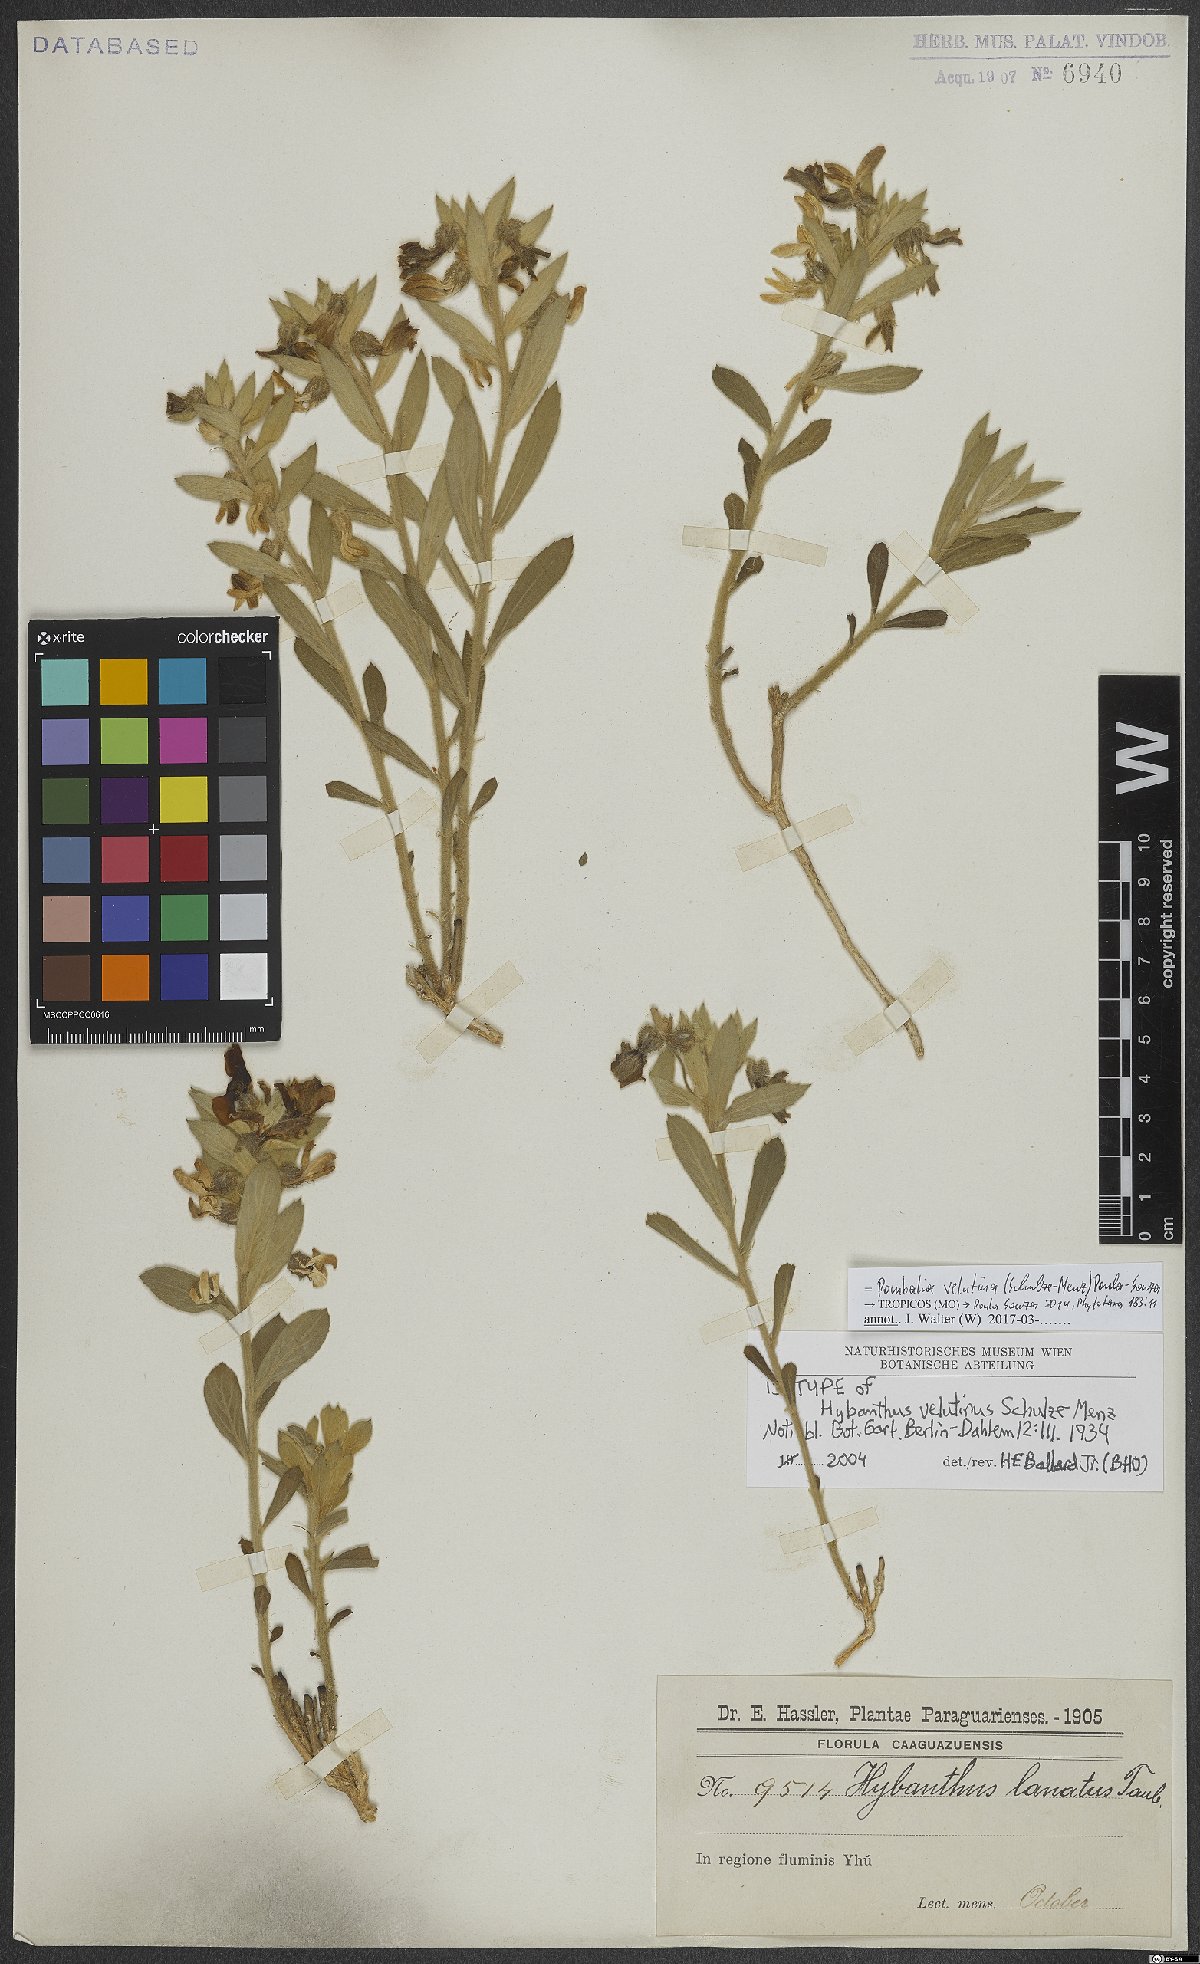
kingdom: Plantae
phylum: Tracheophyta
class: Magnoliopsida
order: Malpighiales
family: Violaceae
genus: Pombalia
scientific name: Pombalia velutina
